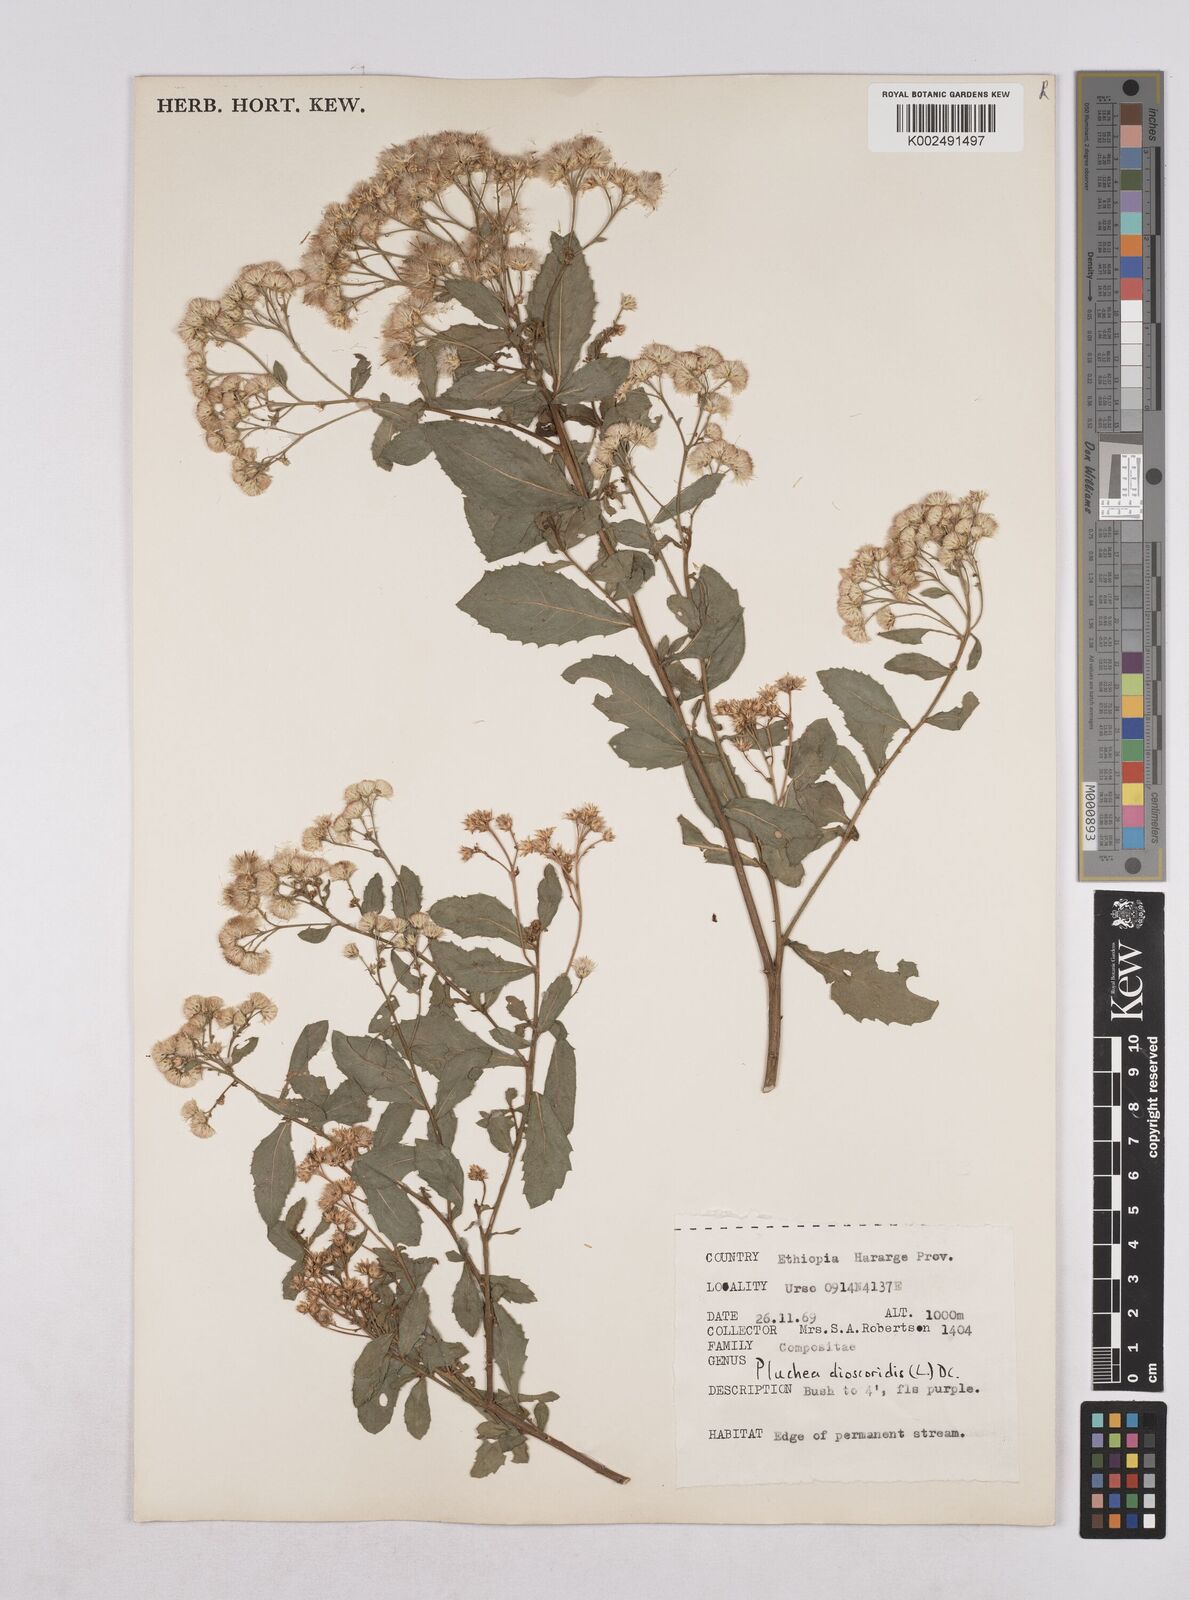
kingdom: Plantae
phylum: Tracheophyta
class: Magnoliopsida
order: Asterales
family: Asteraceae
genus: Pluchea
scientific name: Pluchea dioscoridis
